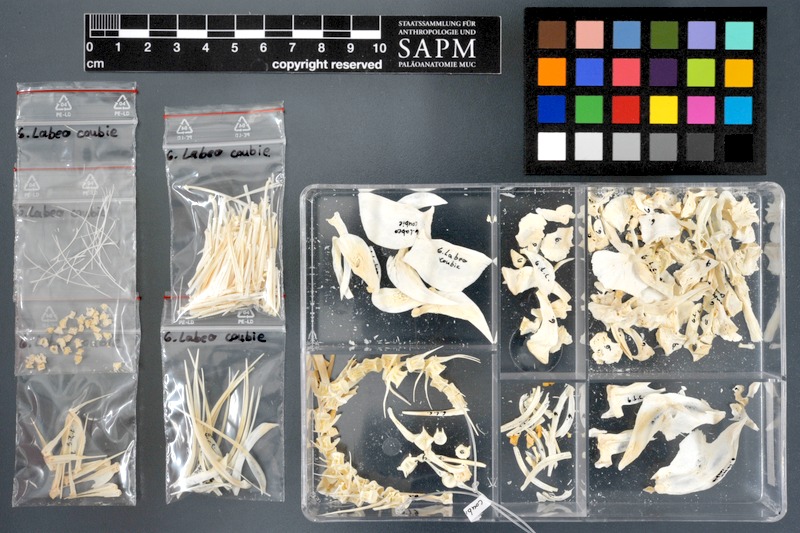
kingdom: Animalia
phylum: Chordata
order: Cypriniformes
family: Cyprinidae
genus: Labeo
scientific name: Labeo coubie
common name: African carp
